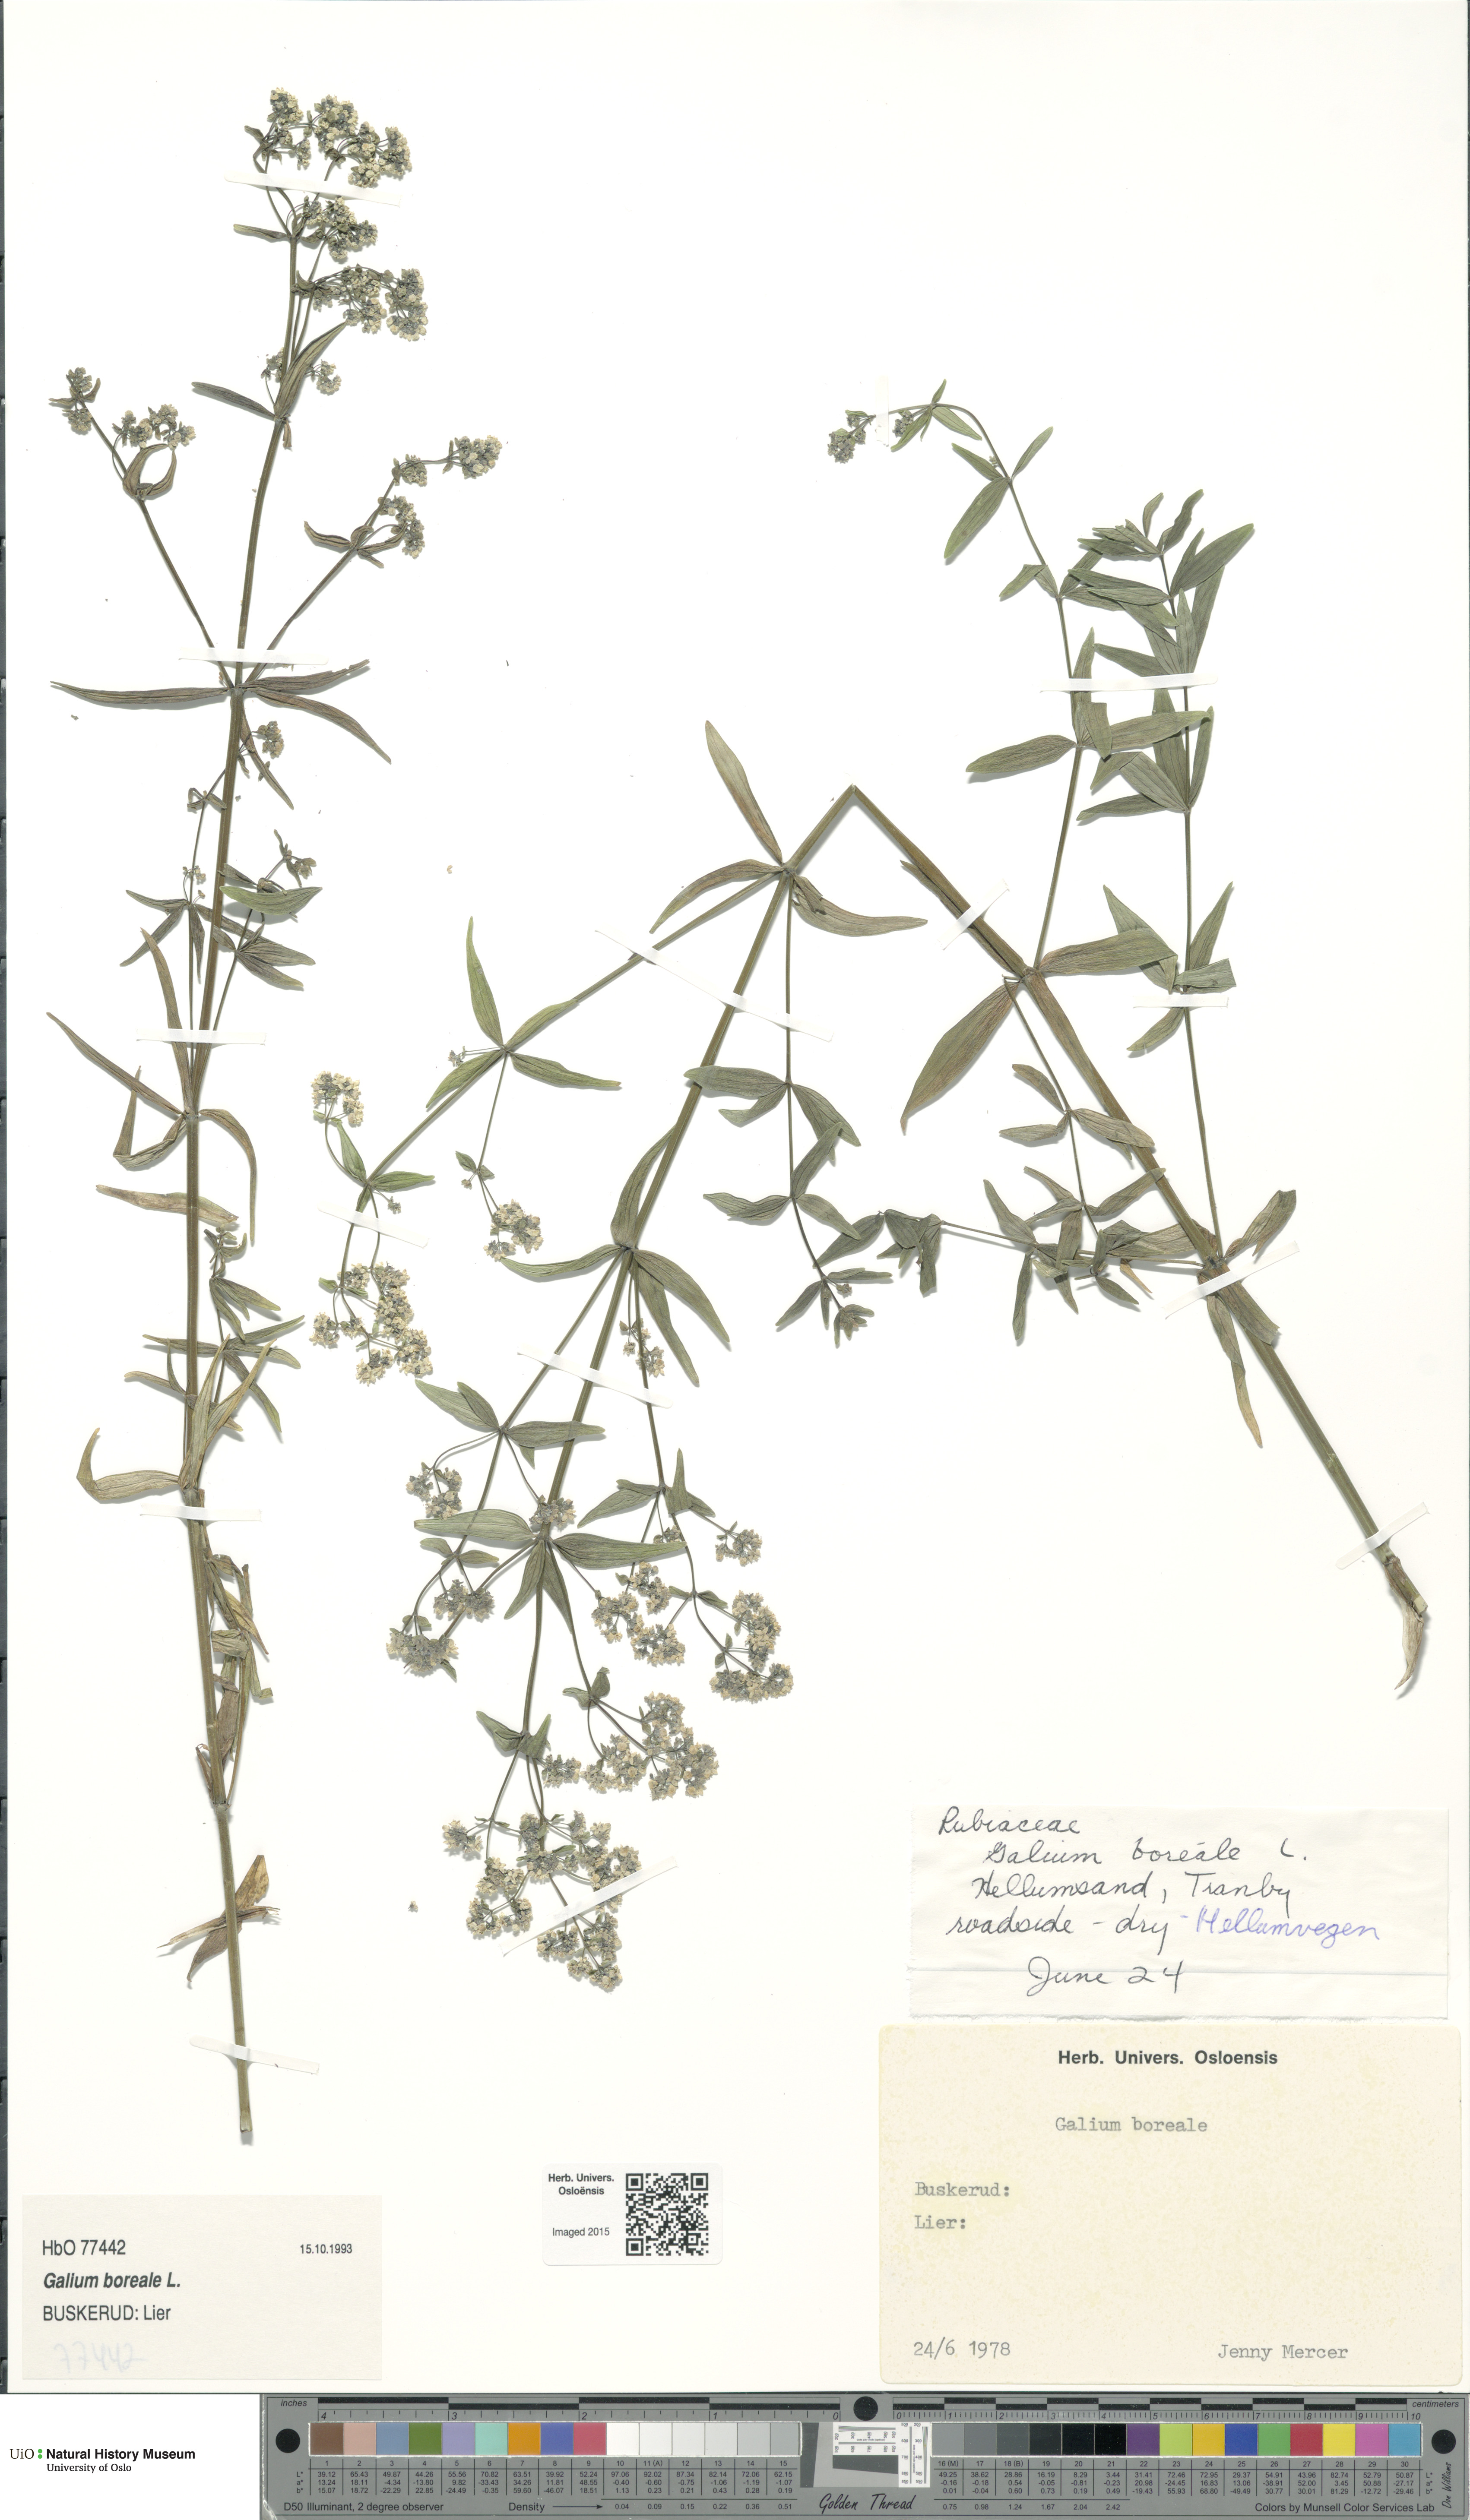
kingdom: Plantae
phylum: Tracheophyta
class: Magnoliopsida
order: Gentianales
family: Rubiaceae
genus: Galium
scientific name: Galium boreale
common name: Northern bedstraw
